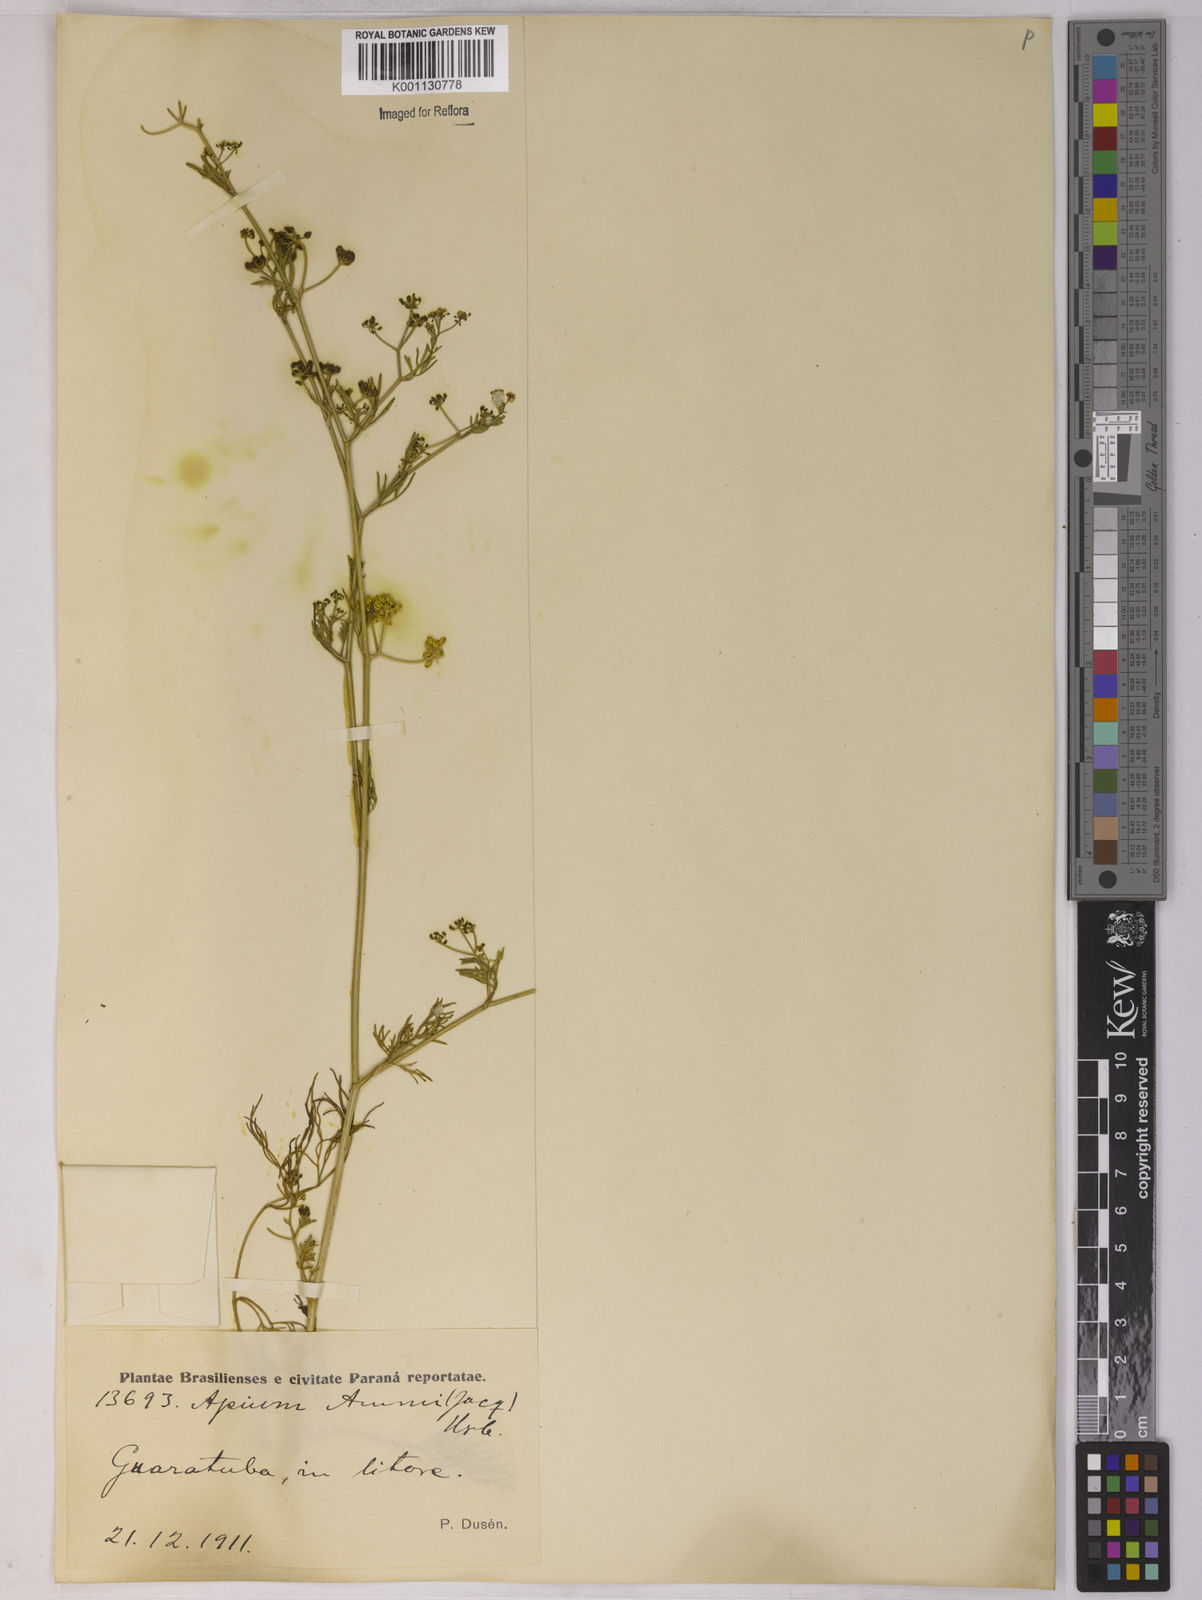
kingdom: Plantae
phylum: Tracheophyta
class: Magnoliopsida
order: Apiales
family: Apiaceae
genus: Apium
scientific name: Apium
